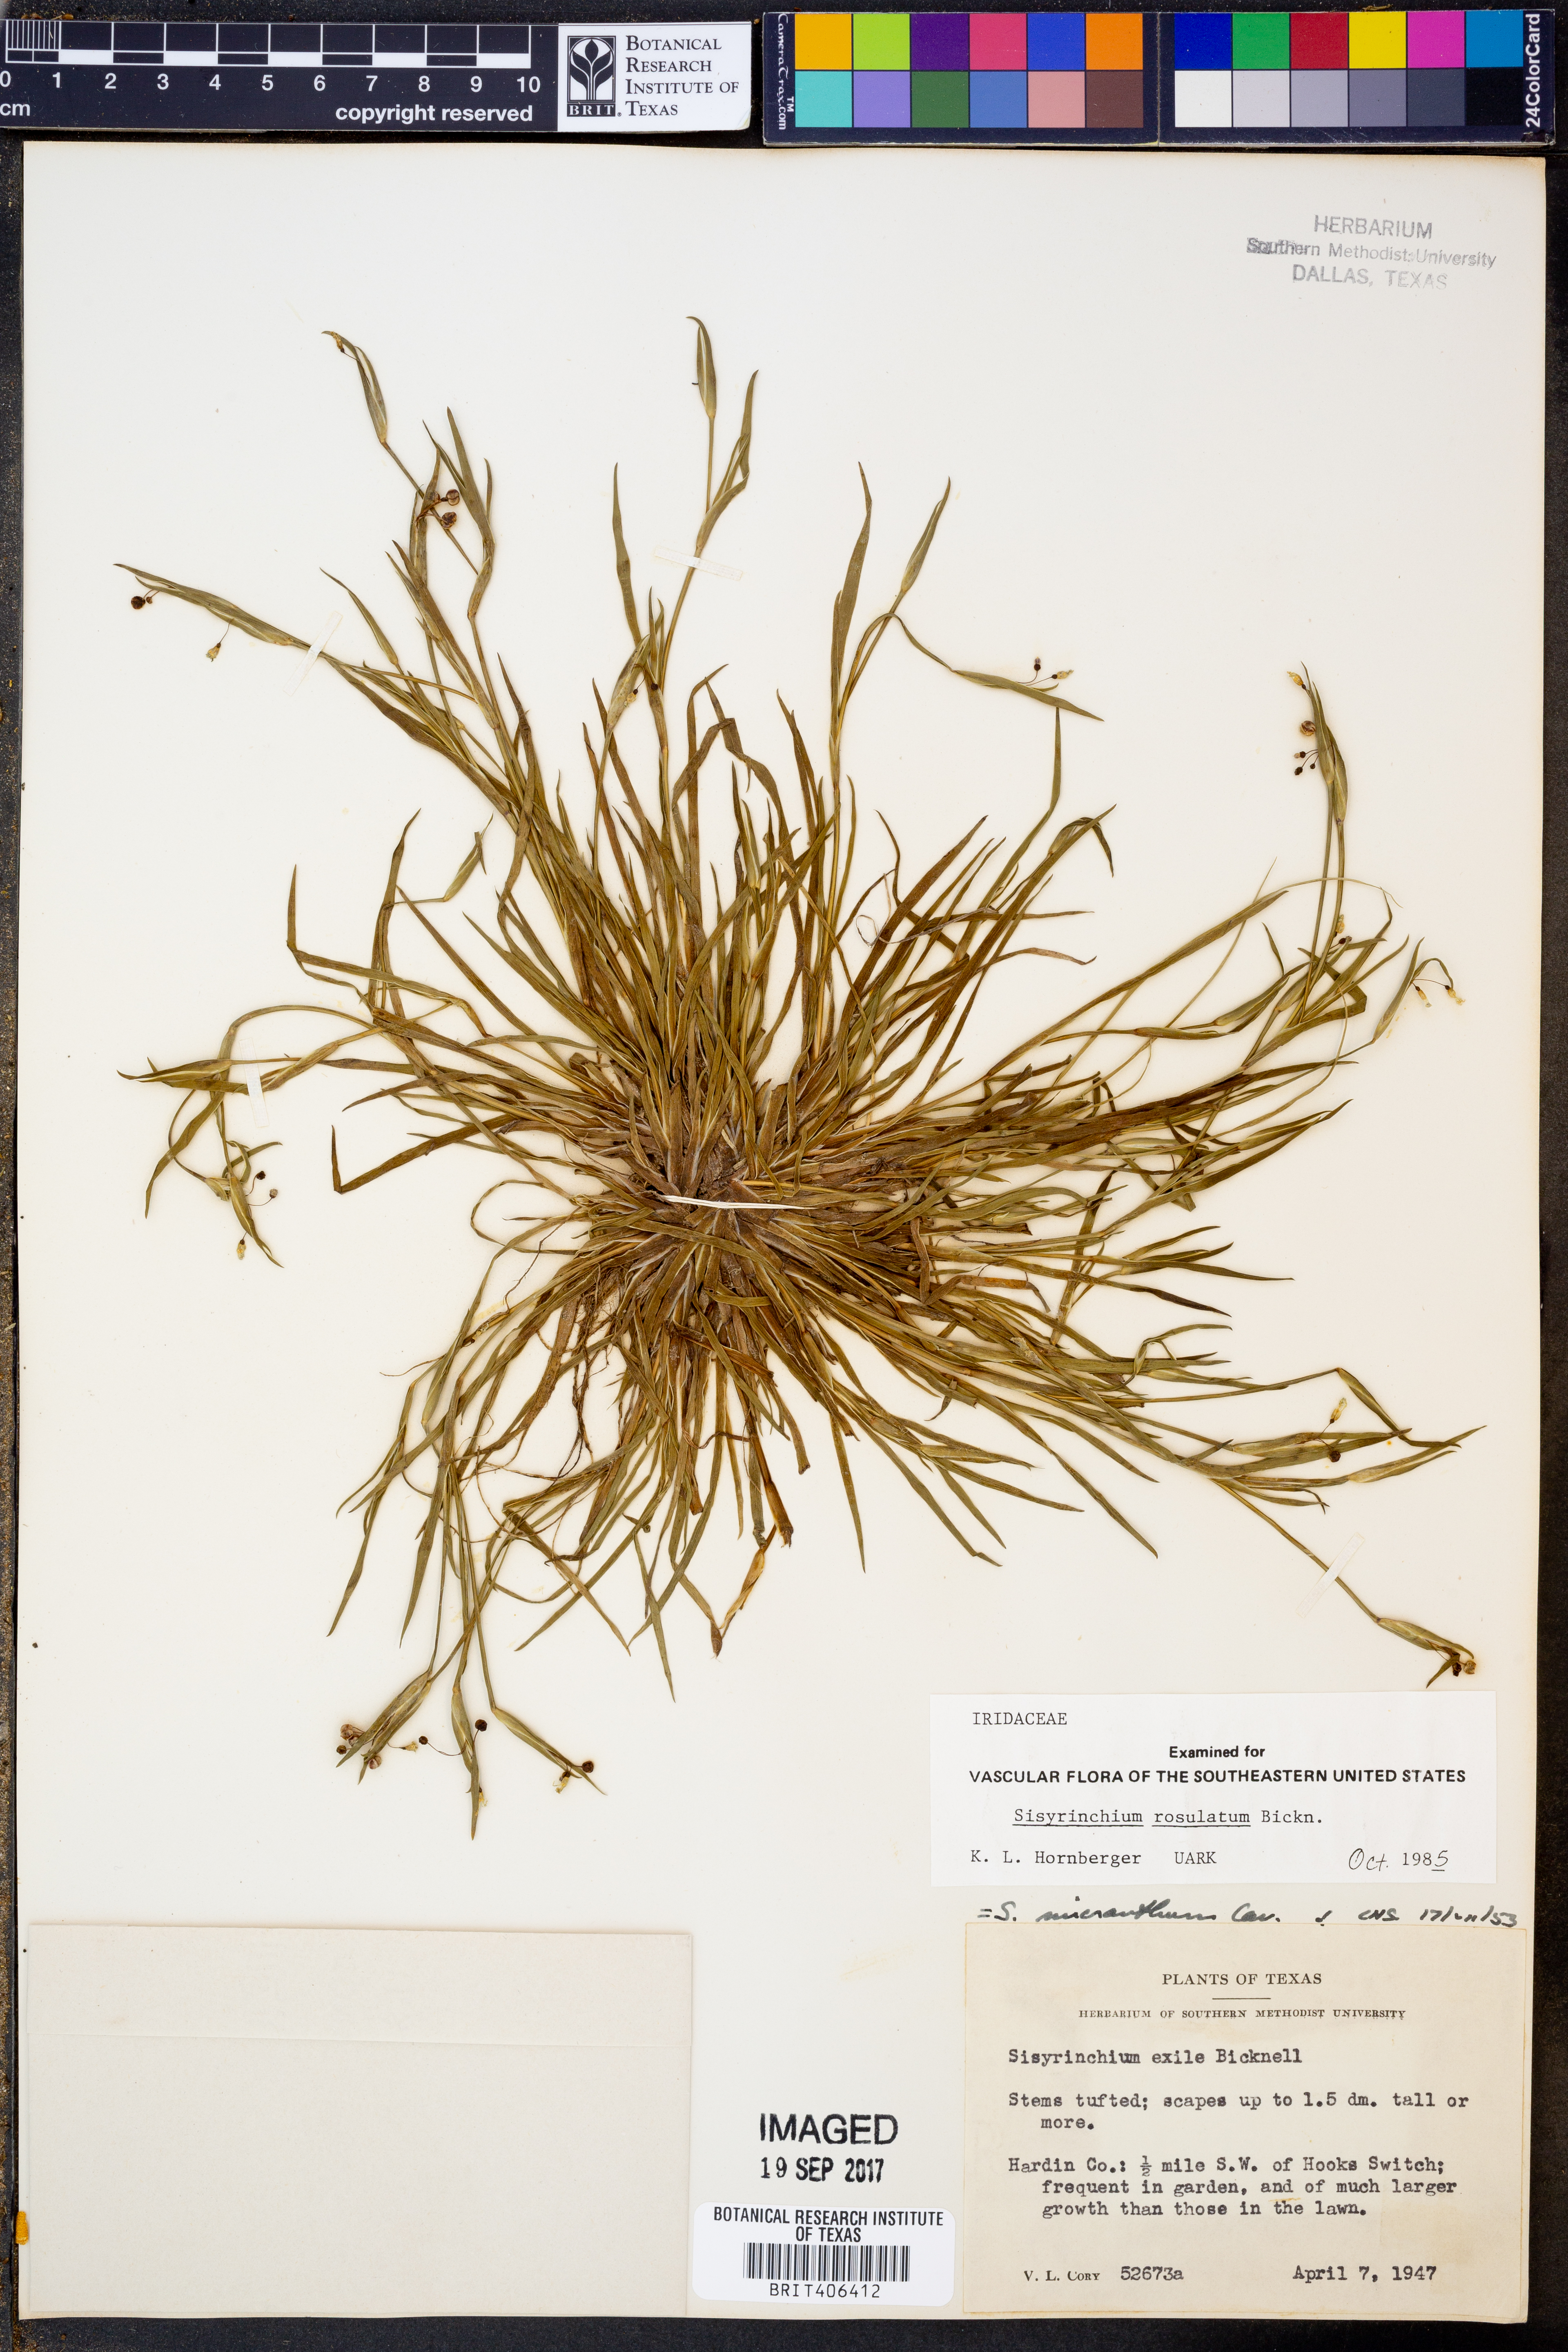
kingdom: Plantae
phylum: Tracheophyta
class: Liliopsida
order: Asparagales
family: Iridaceae
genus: Sisyrinchium
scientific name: Sisyrinchium rosulatum
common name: Annual blue-eyed grass
